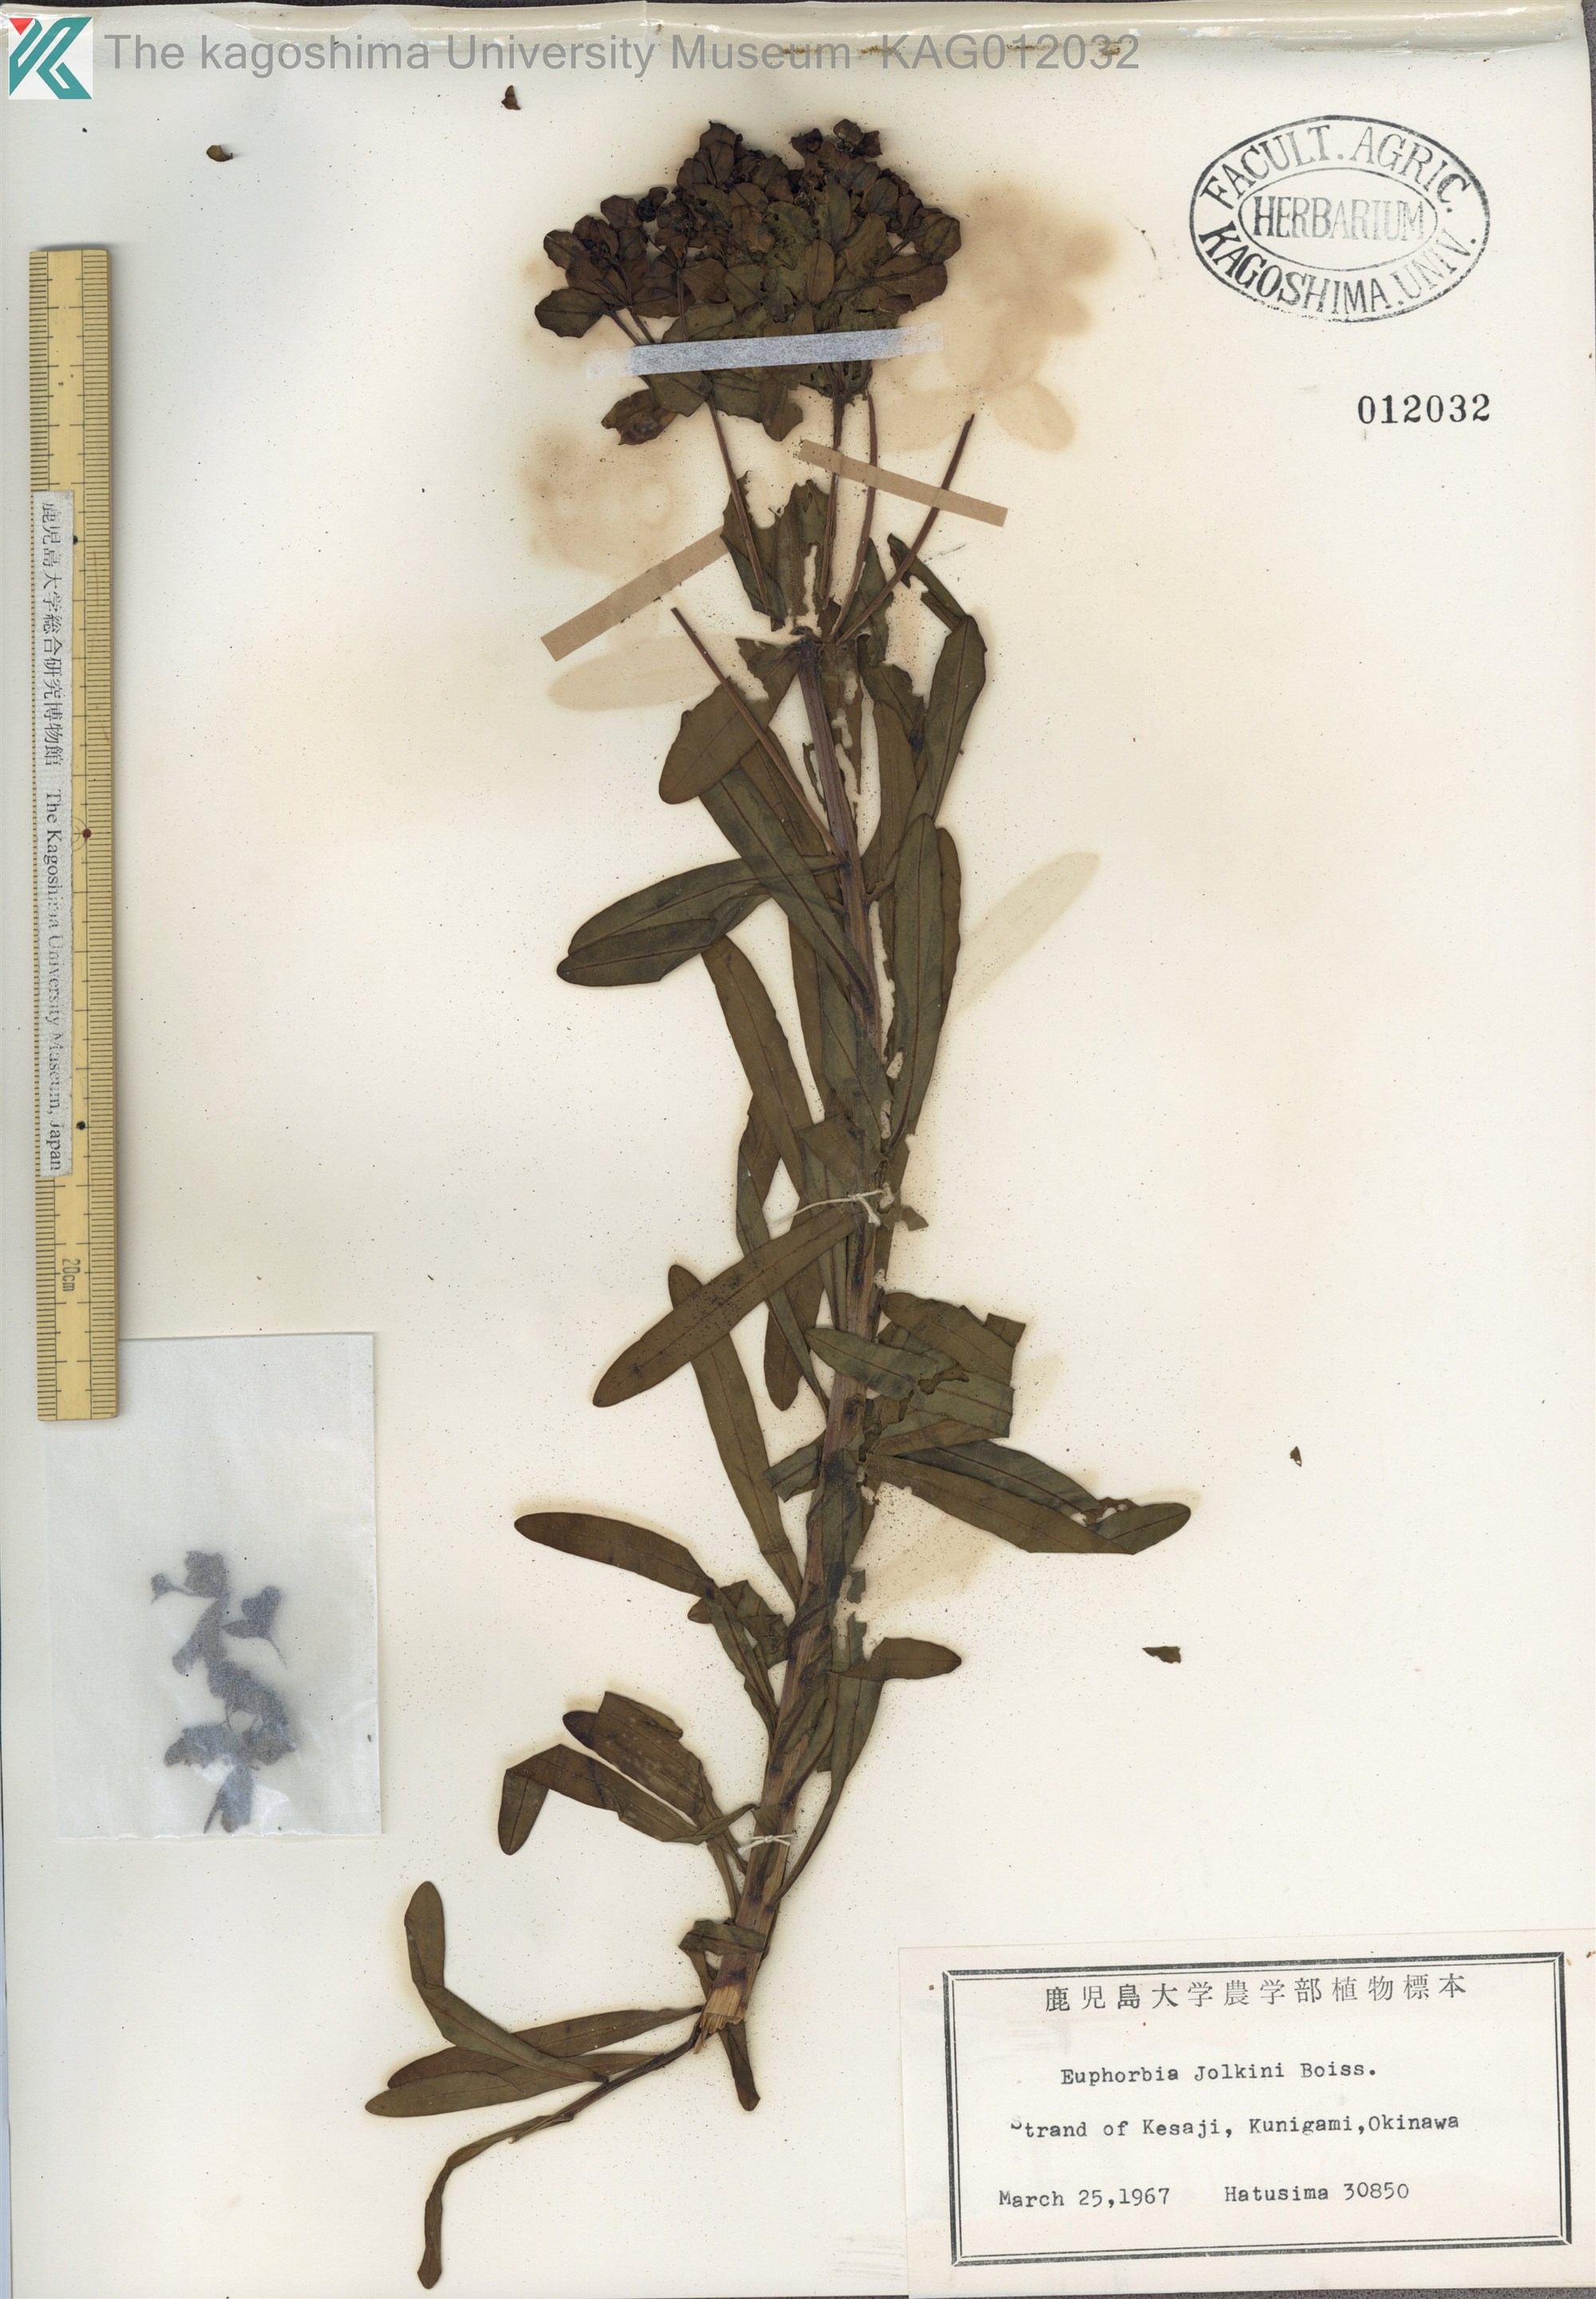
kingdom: Plantae
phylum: Tracheophyta
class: Magnoliopsida
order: Malpighiales
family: Euphorbiaceae
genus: Euphorbia
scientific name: Euphorbia jolkinii
